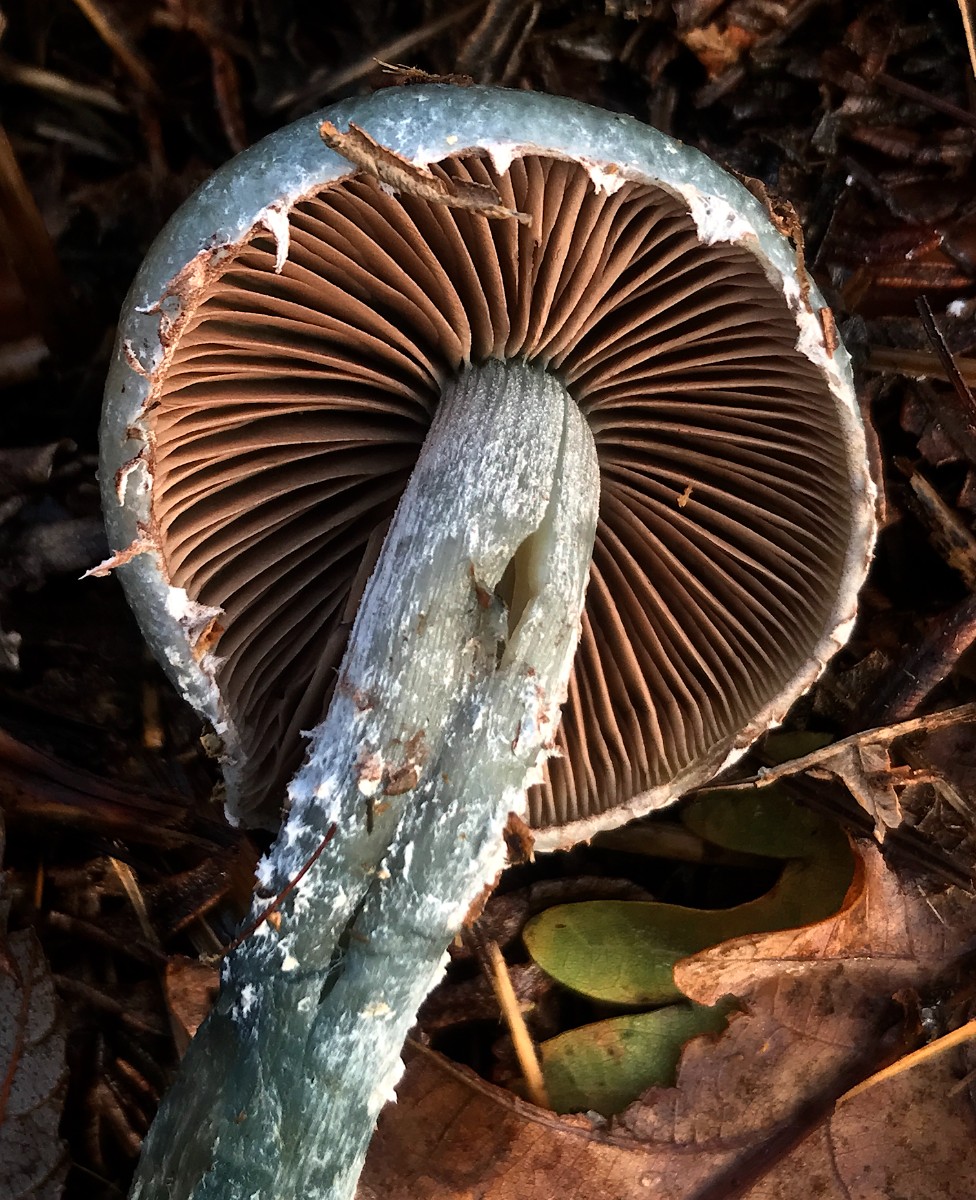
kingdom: Fungi
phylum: Basidiomycota
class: Agaricomycetes
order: Agaricales
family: Strophariaceae
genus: Stropharia
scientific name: Stropharia cyanea
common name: blågrøn bredblad
